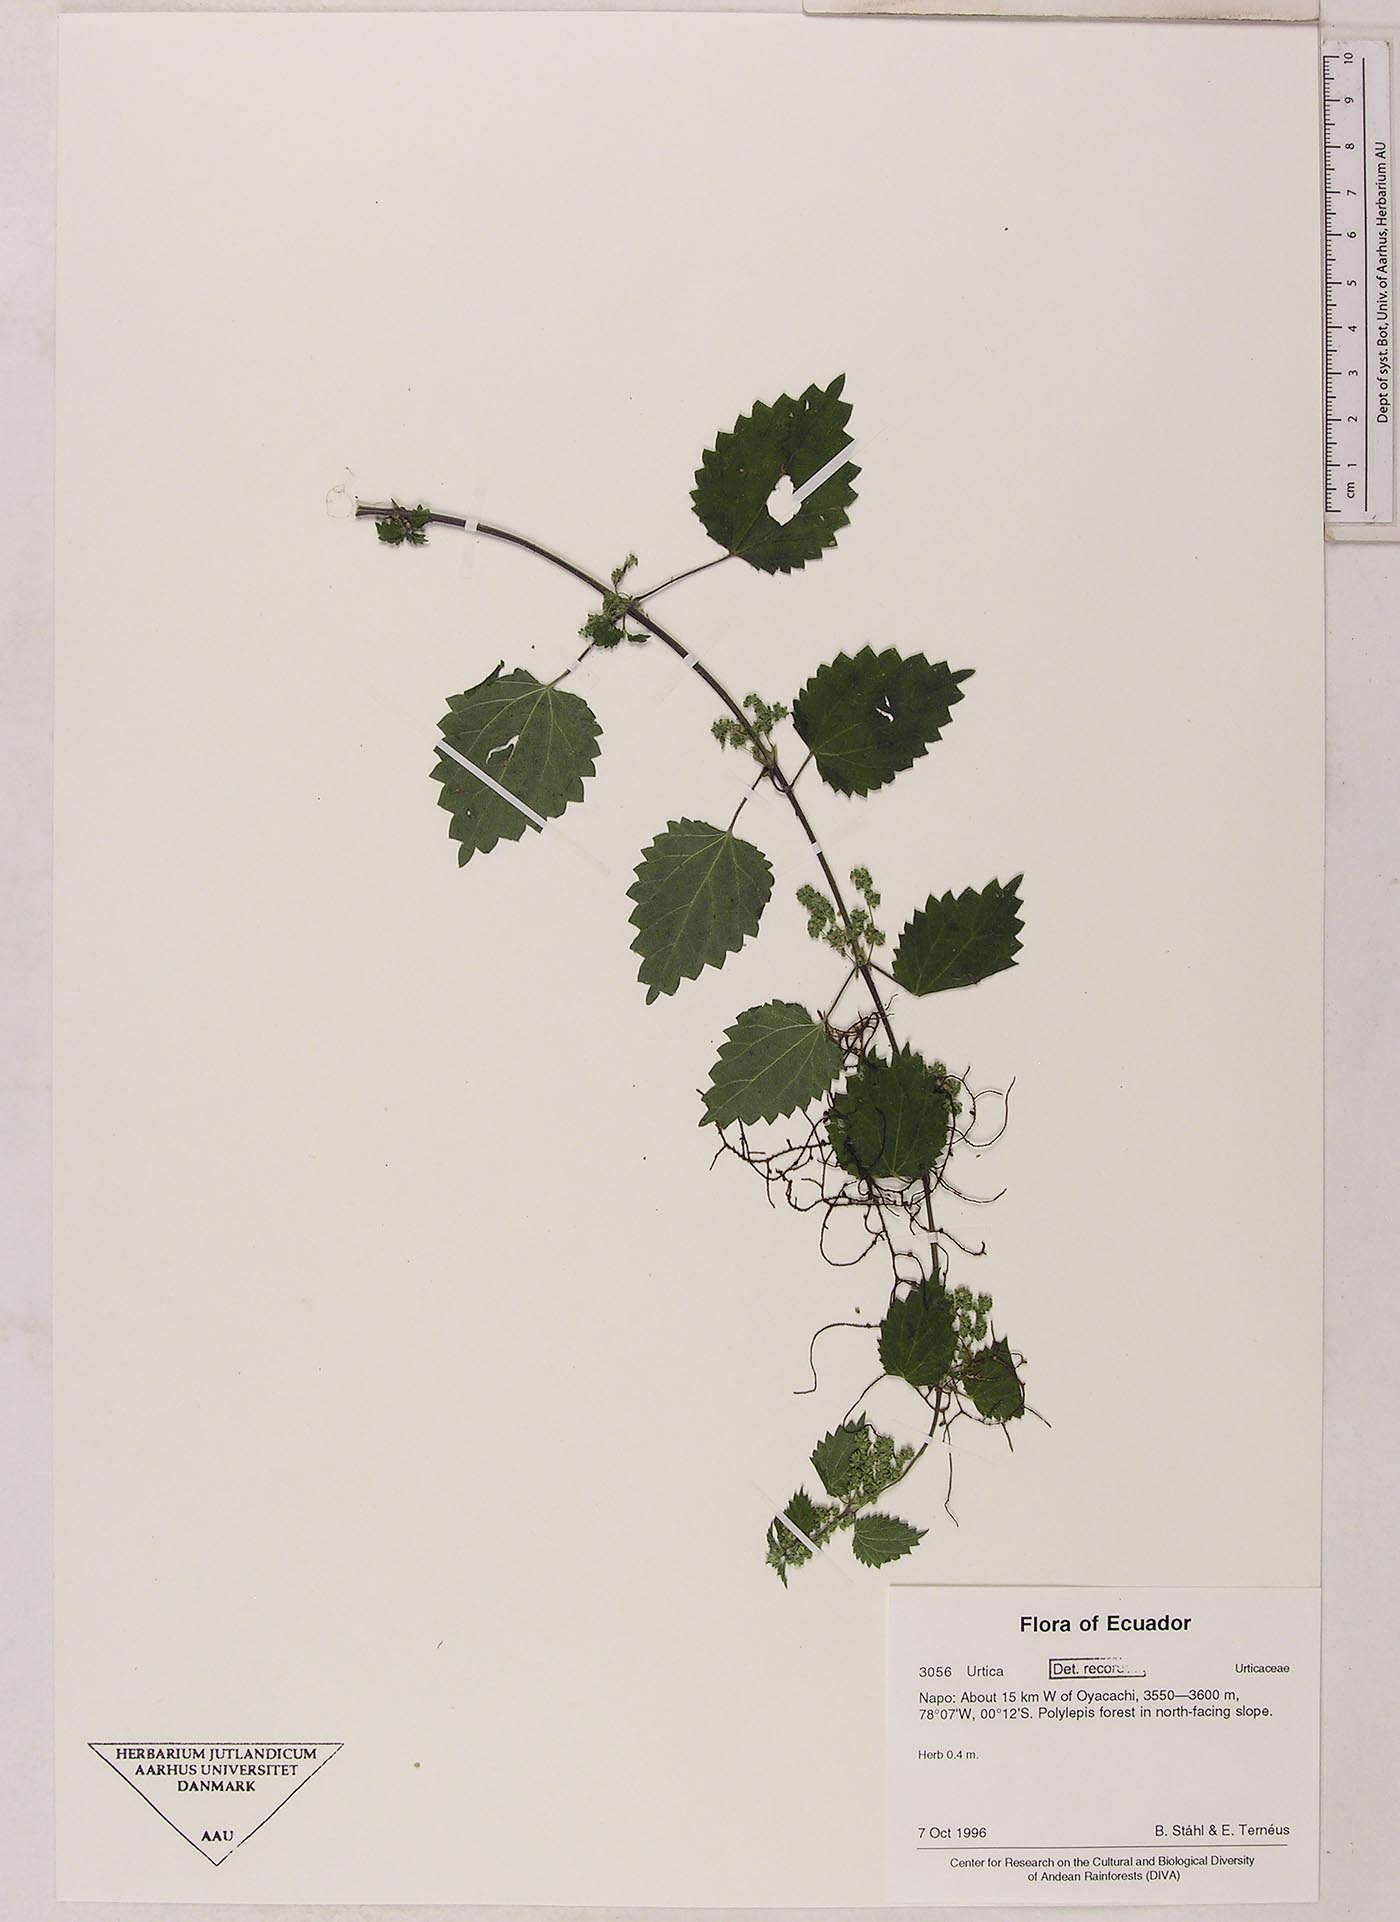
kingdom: Plantae
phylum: Tracheophyta
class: Magnoliopsida
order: Rosales
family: Urticaceae
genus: Urtica
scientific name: Urtica leptophylla
